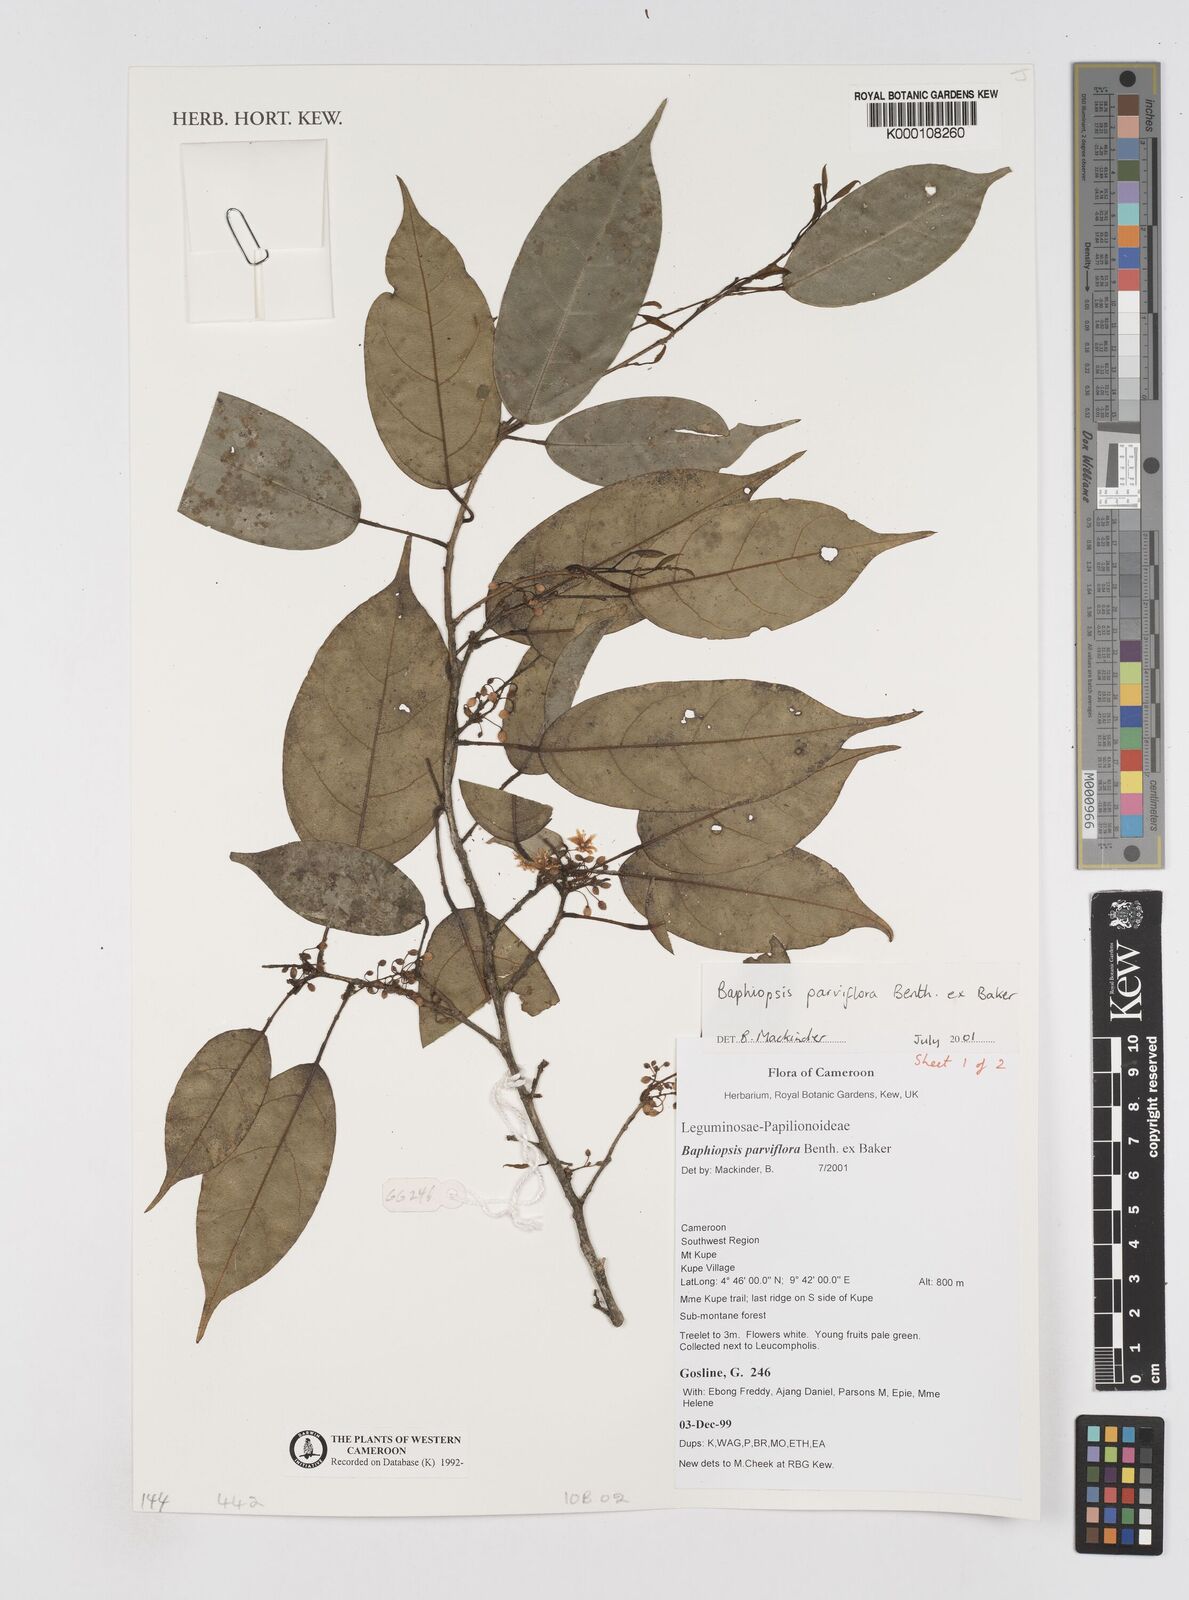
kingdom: Plantae
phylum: Tracheophyta
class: Magnoliopsida
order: Fabales
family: Fabaceae
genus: Baphiopsis
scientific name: Baphiopsis parviflora
